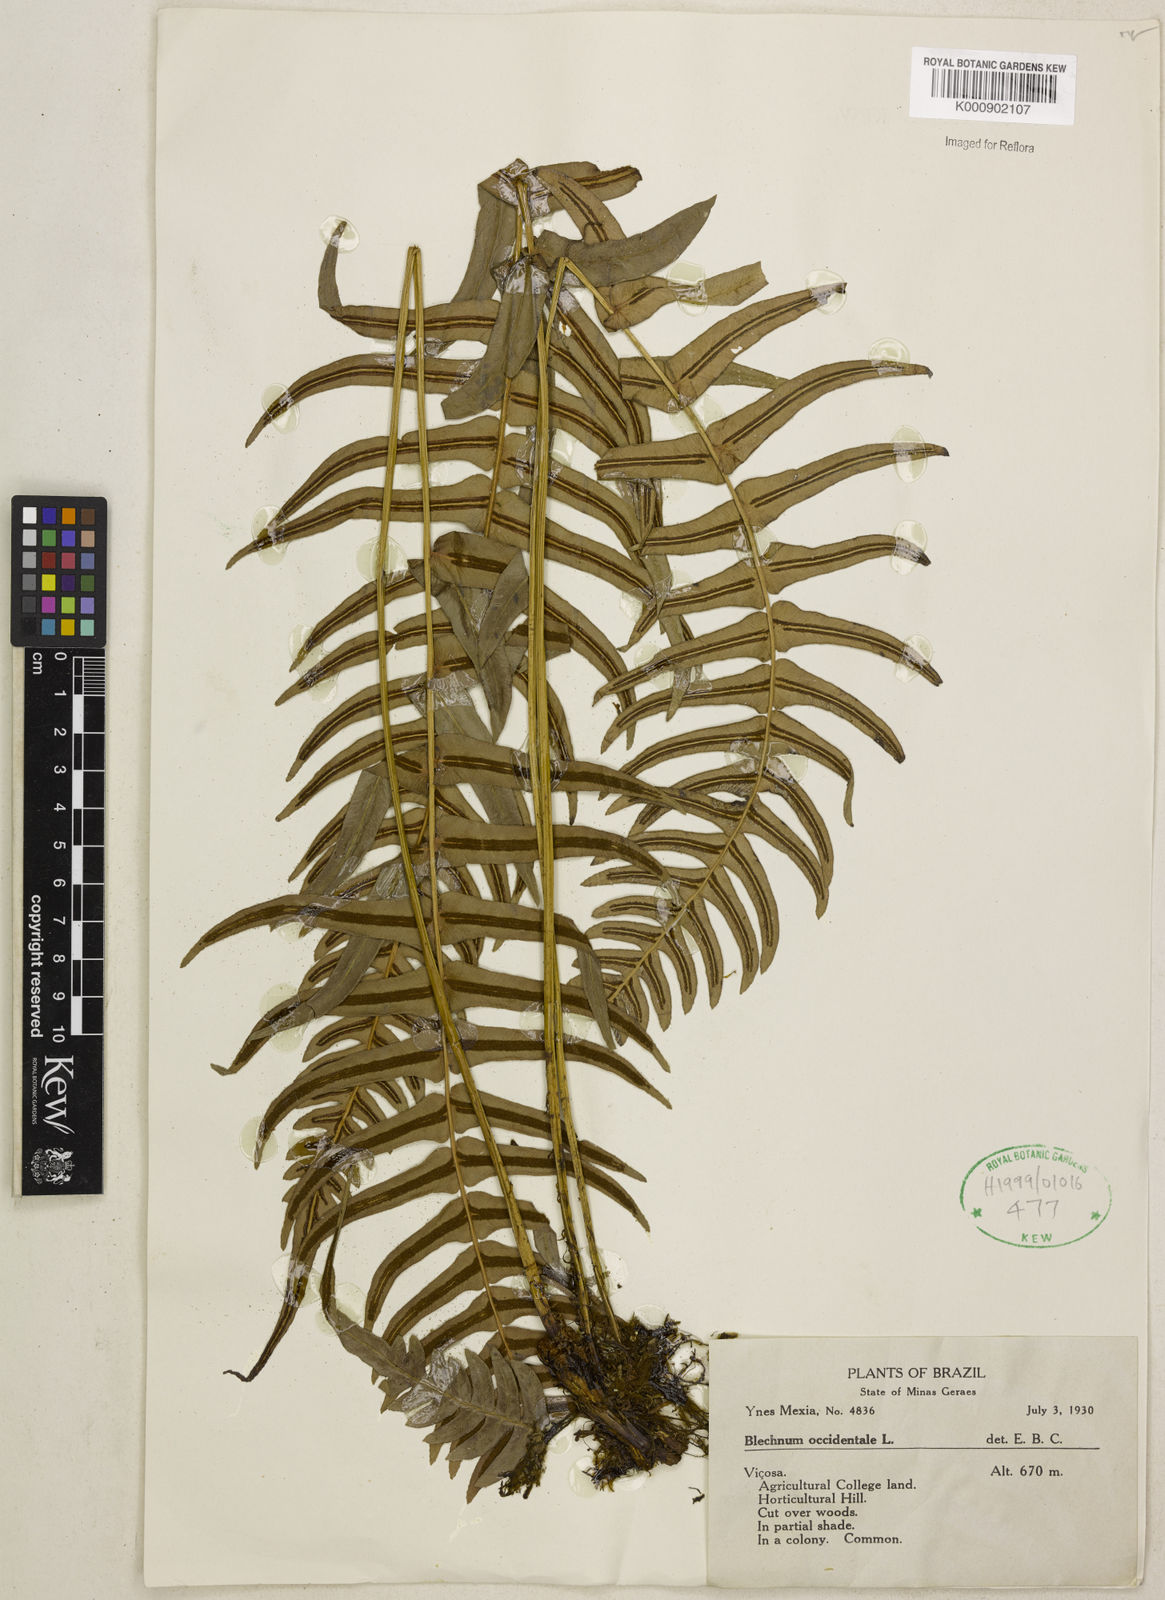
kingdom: Plantae
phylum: Tracheophyta
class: Polypodiopsida
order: Polypodiales
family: Blechnaceae
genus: Blechnum
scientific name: Blechnum occidentale
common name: Hammock fern
